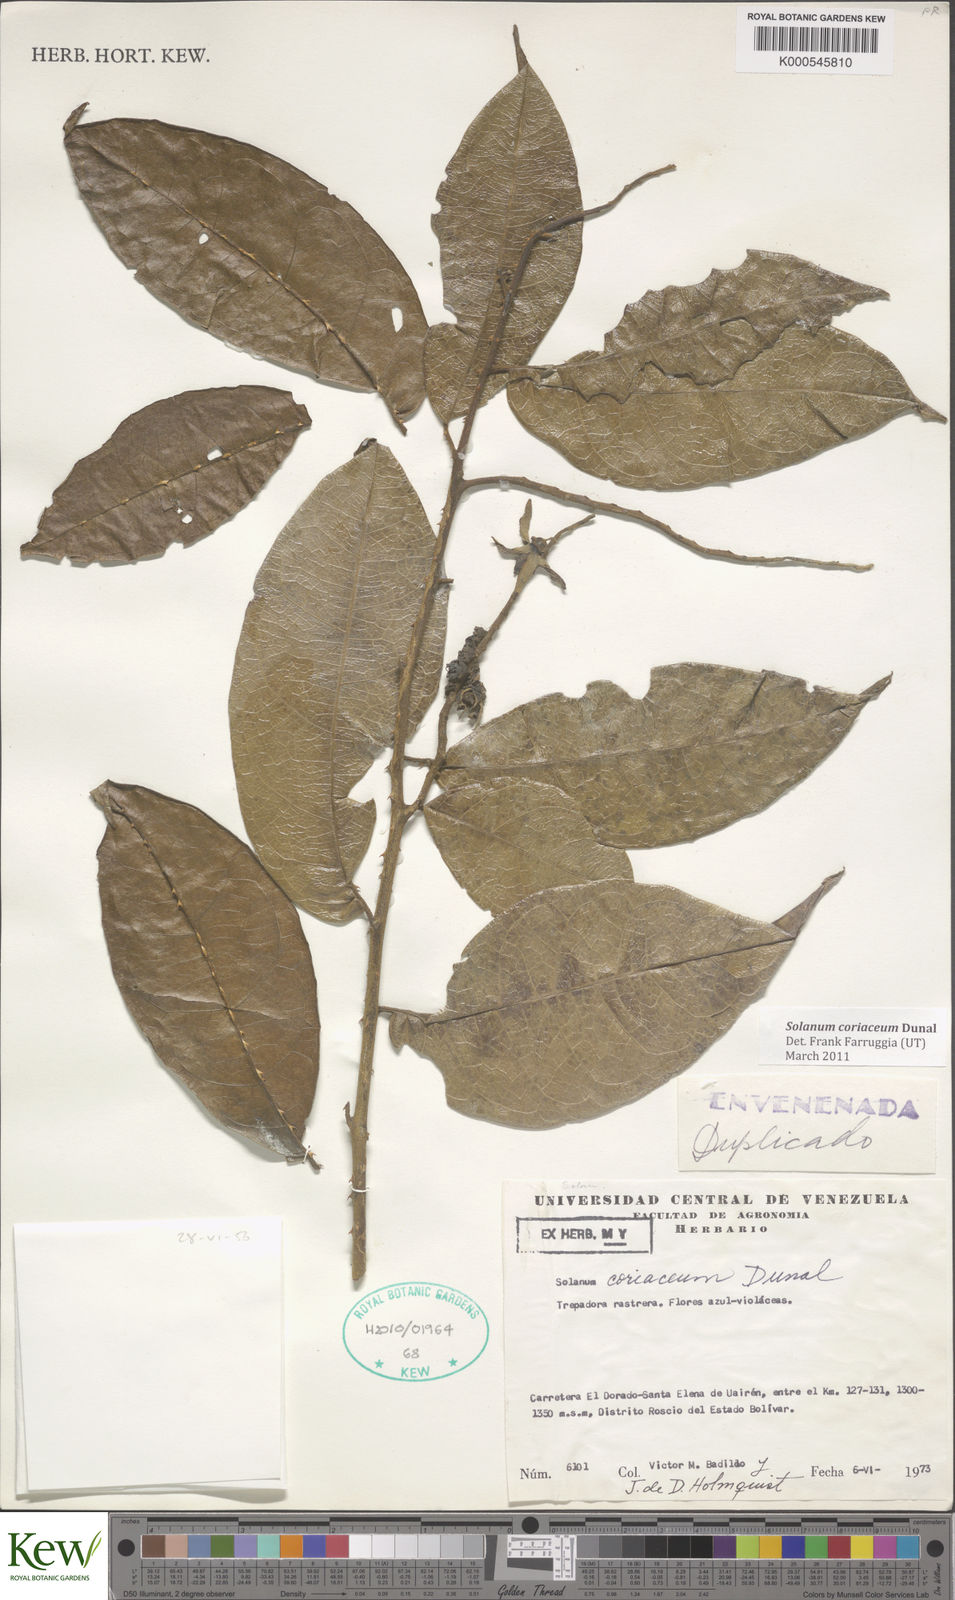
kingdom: Plantae
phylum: Tracheophyta
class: Magnoliopsida
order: Solanales
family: Solanaceae
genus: Solanum
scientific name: Solanum coriaceum
